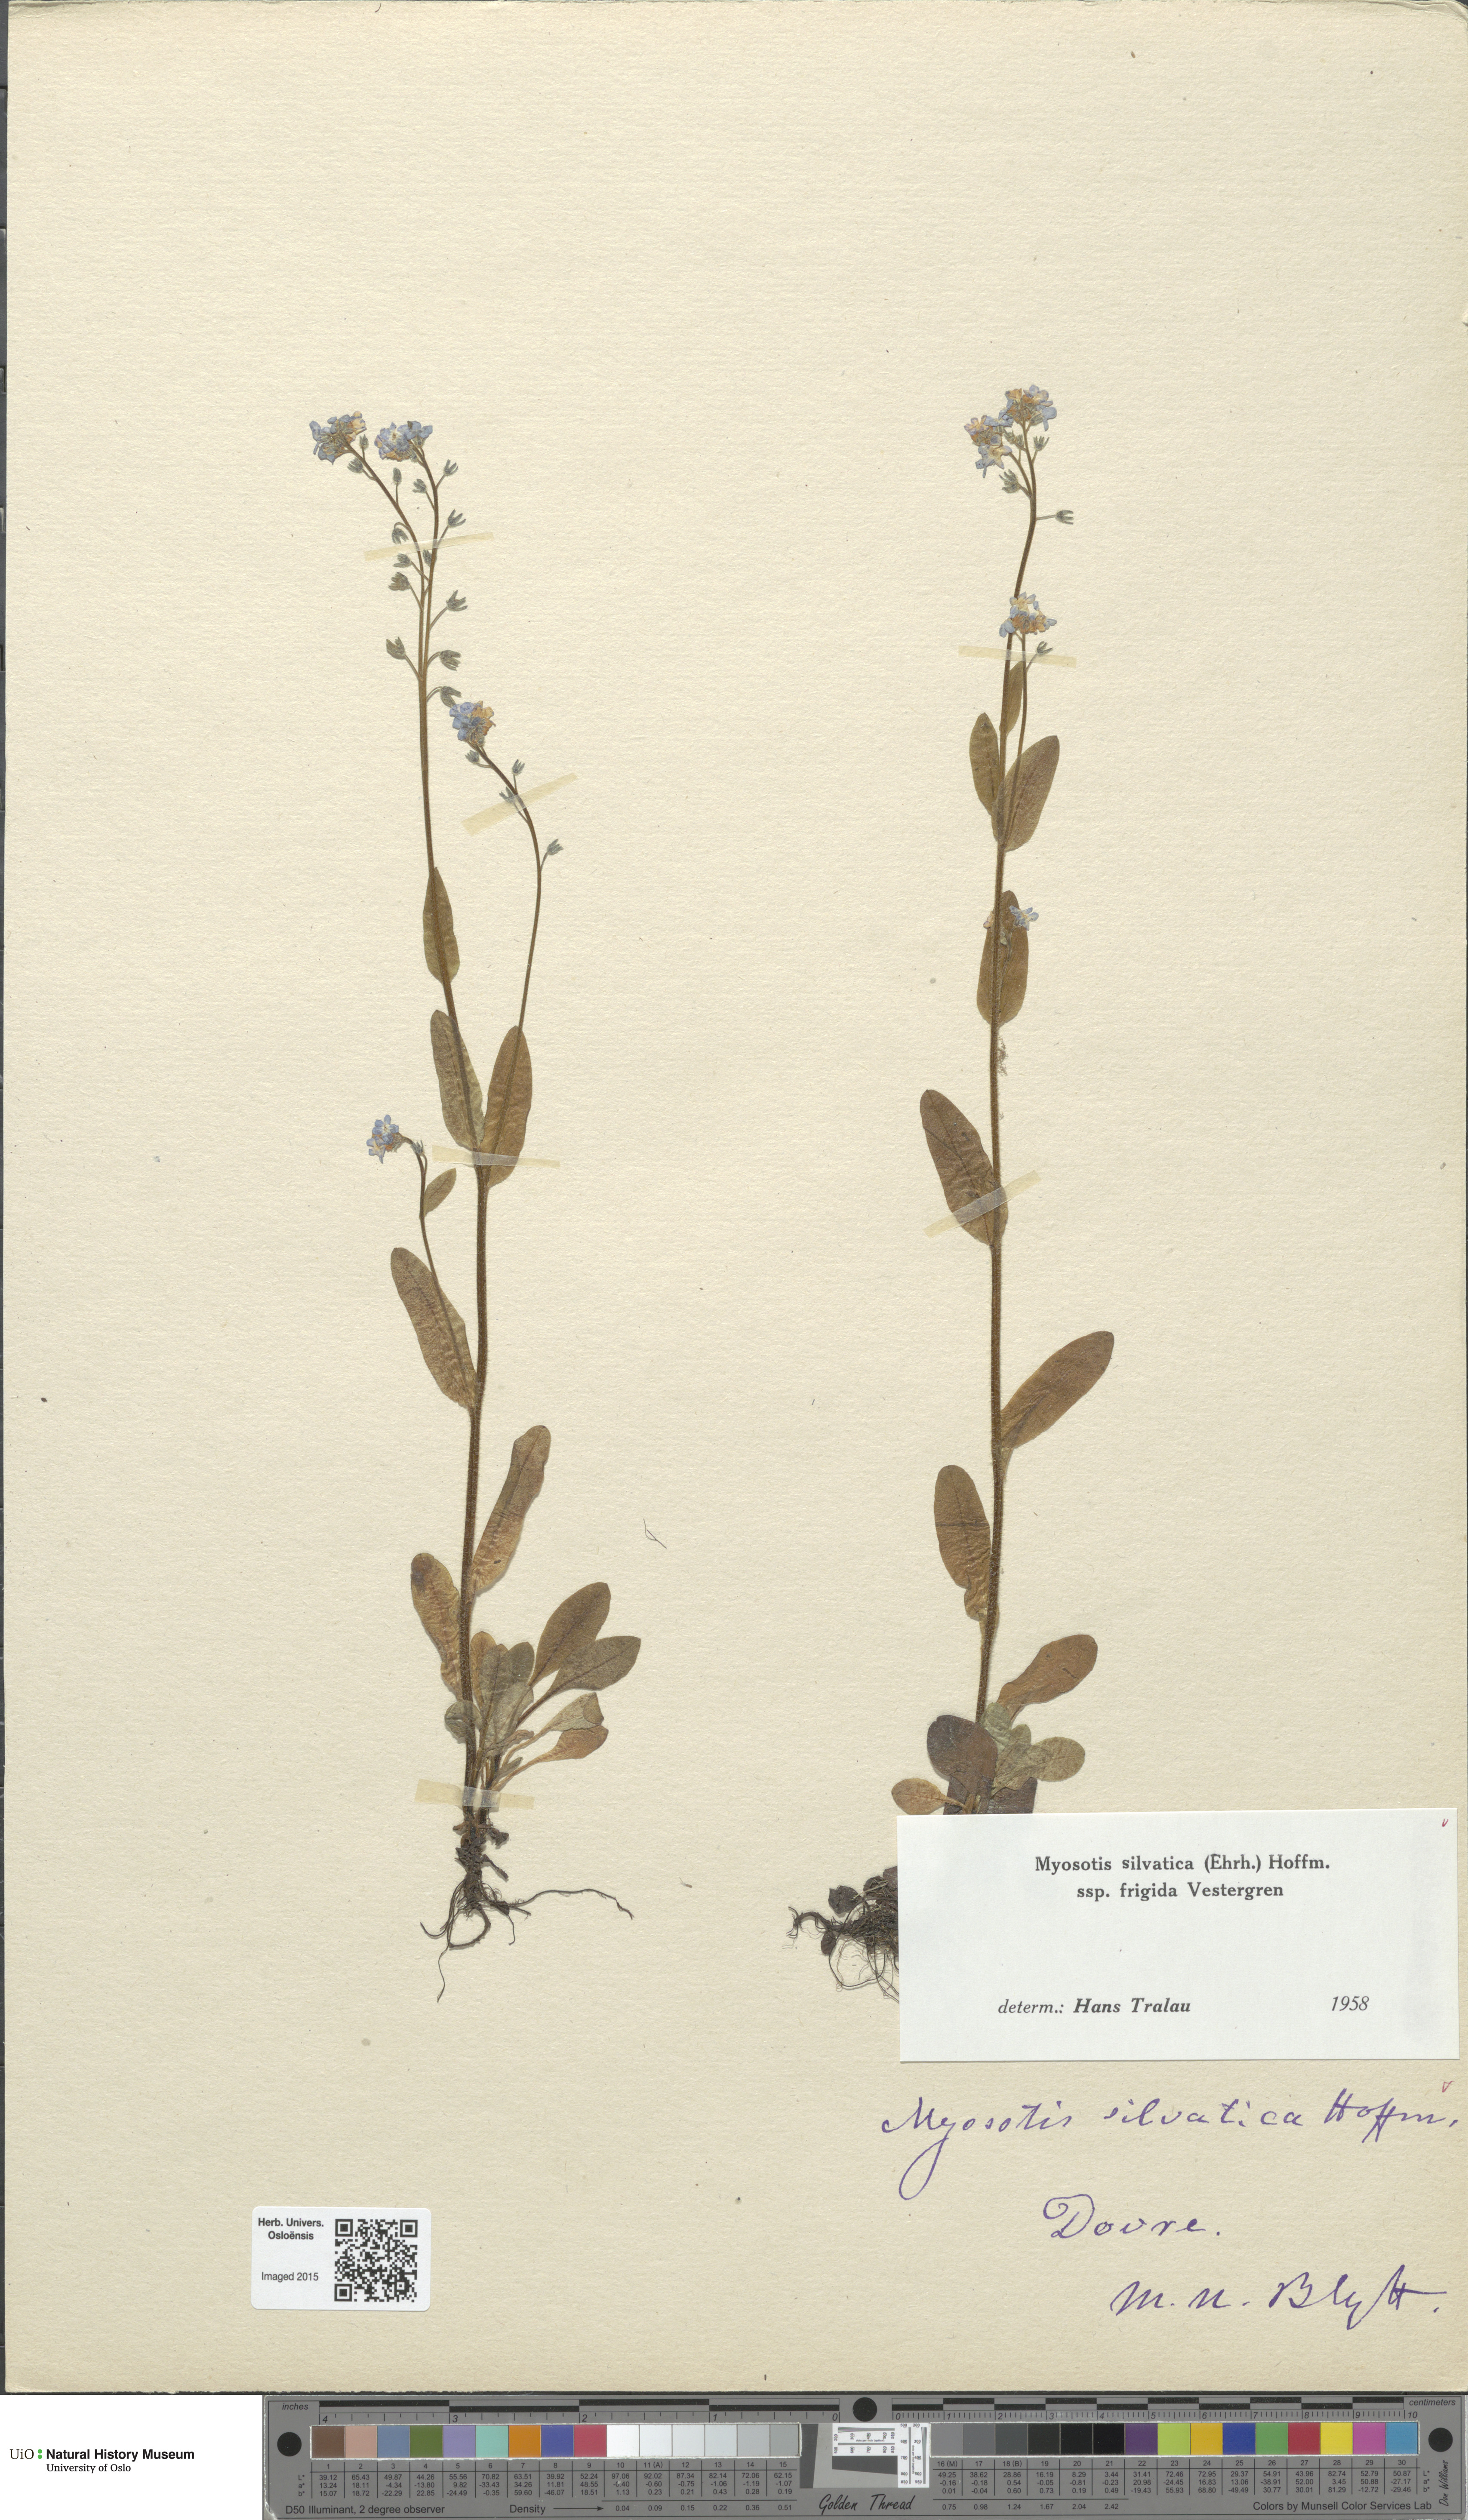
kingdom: Plantae
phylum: Tracheophyta
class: Magnoliopsida
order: Boraginales
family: Boraginaceae
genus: Myosotis
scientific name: Myosotis decumbens
